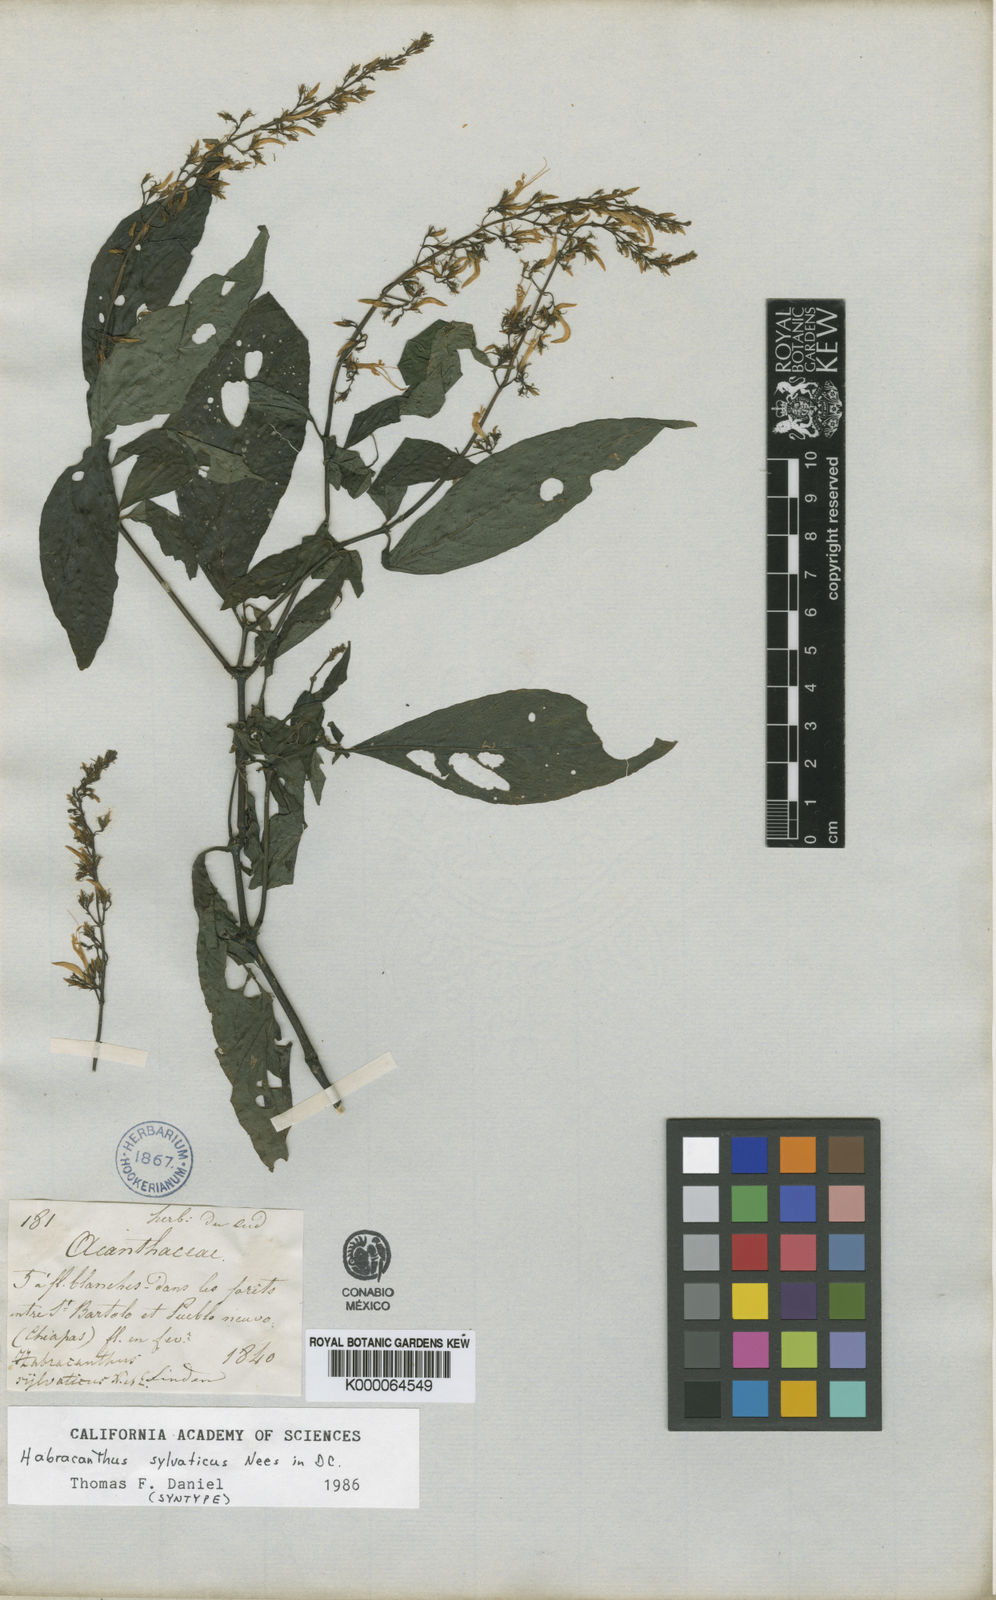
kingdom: Plantae
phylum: Tracheophyta
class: Magnoliopsida
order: Lamiales
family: Acanthaceae
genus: Stenostephanus
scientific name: Stenostephanus silvaticus
